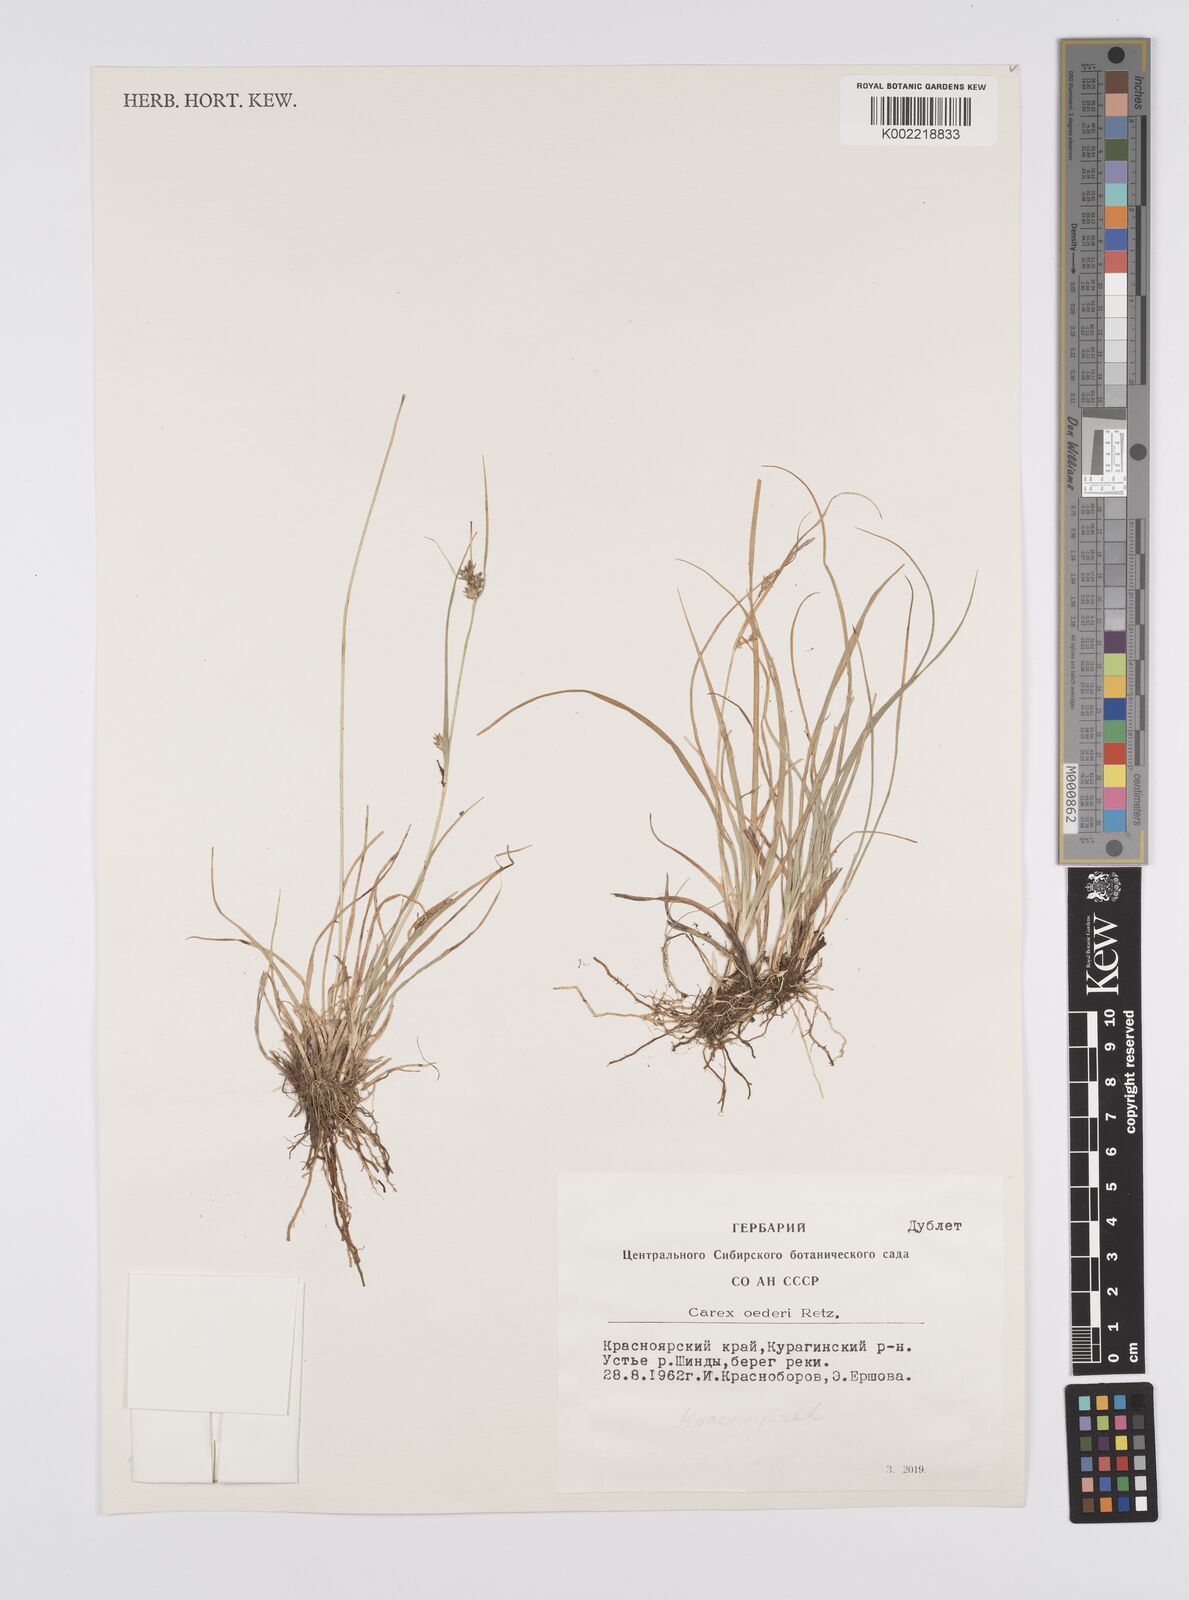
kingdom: Plantae
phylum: Tracheophyta
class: Liliopsida
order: Poales
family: Cyperaceae
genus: Carex
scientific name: Carex pilulifera
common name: Pill sedge
